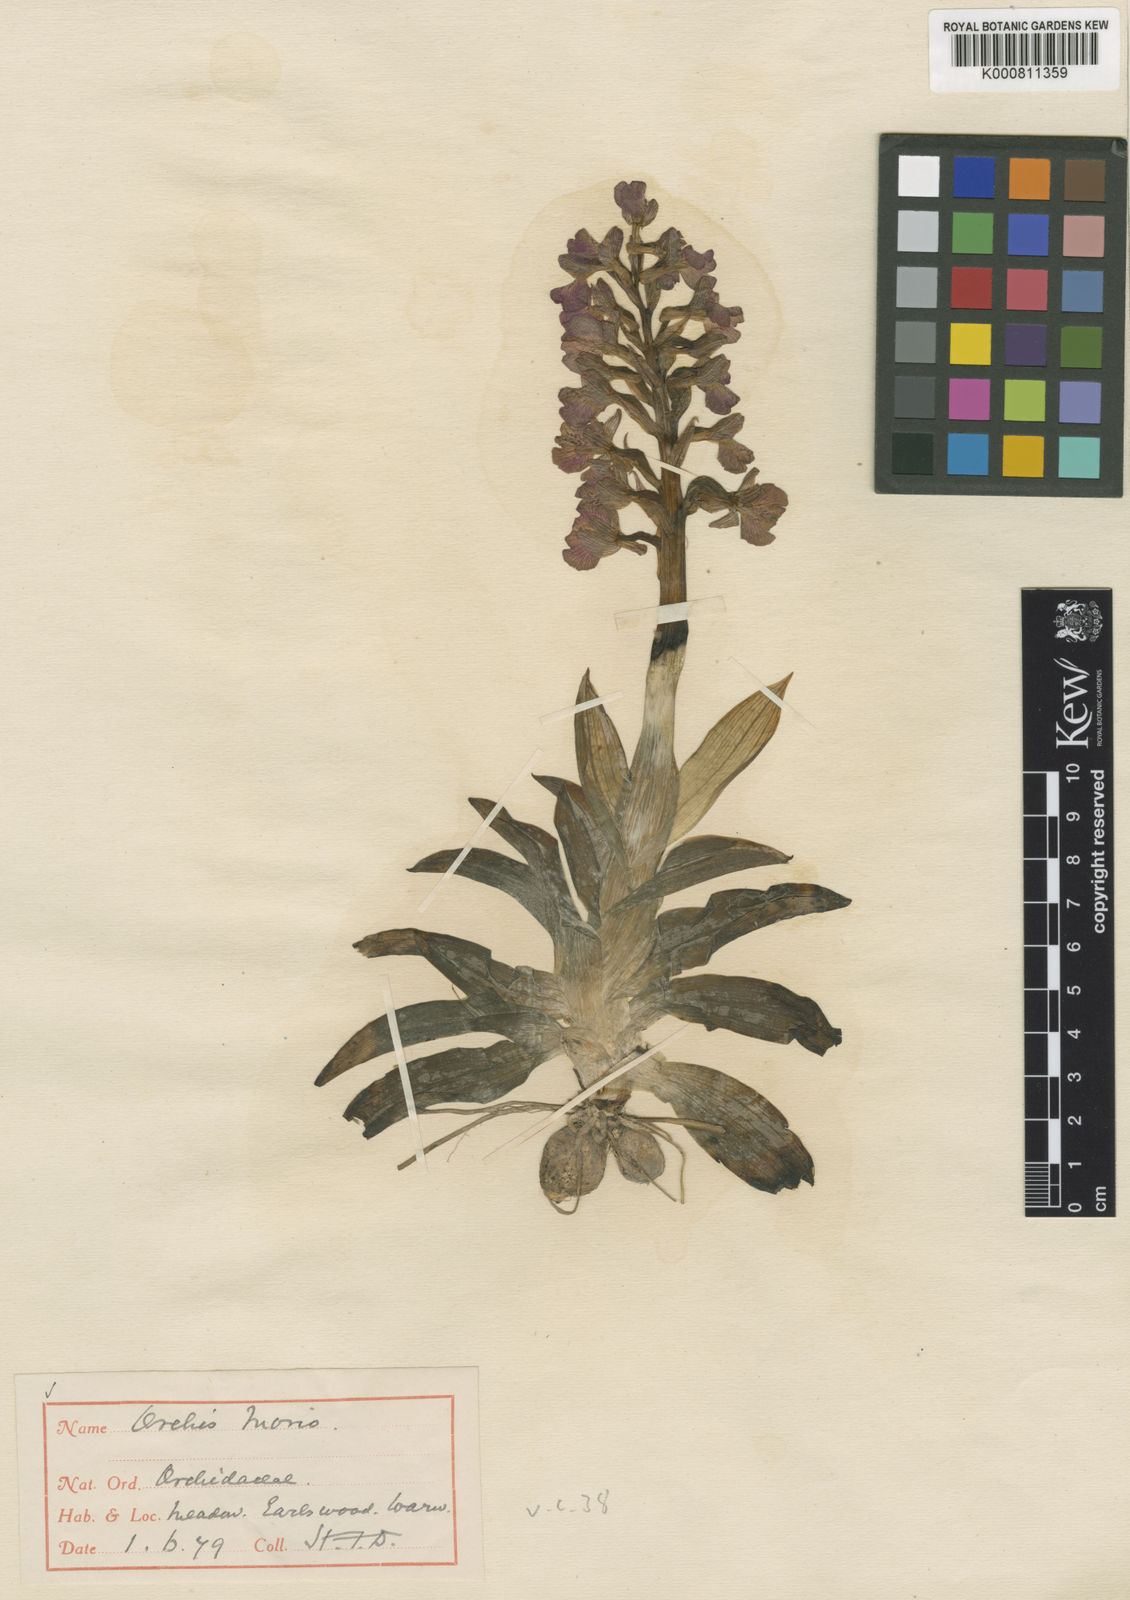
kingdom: Plantae
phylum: Tracheophyta
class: Liliopsida
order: Asparagales
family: Orchidaceae
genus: Anacamptis
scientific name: Anacamptis morio
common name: Green-winged orchid
